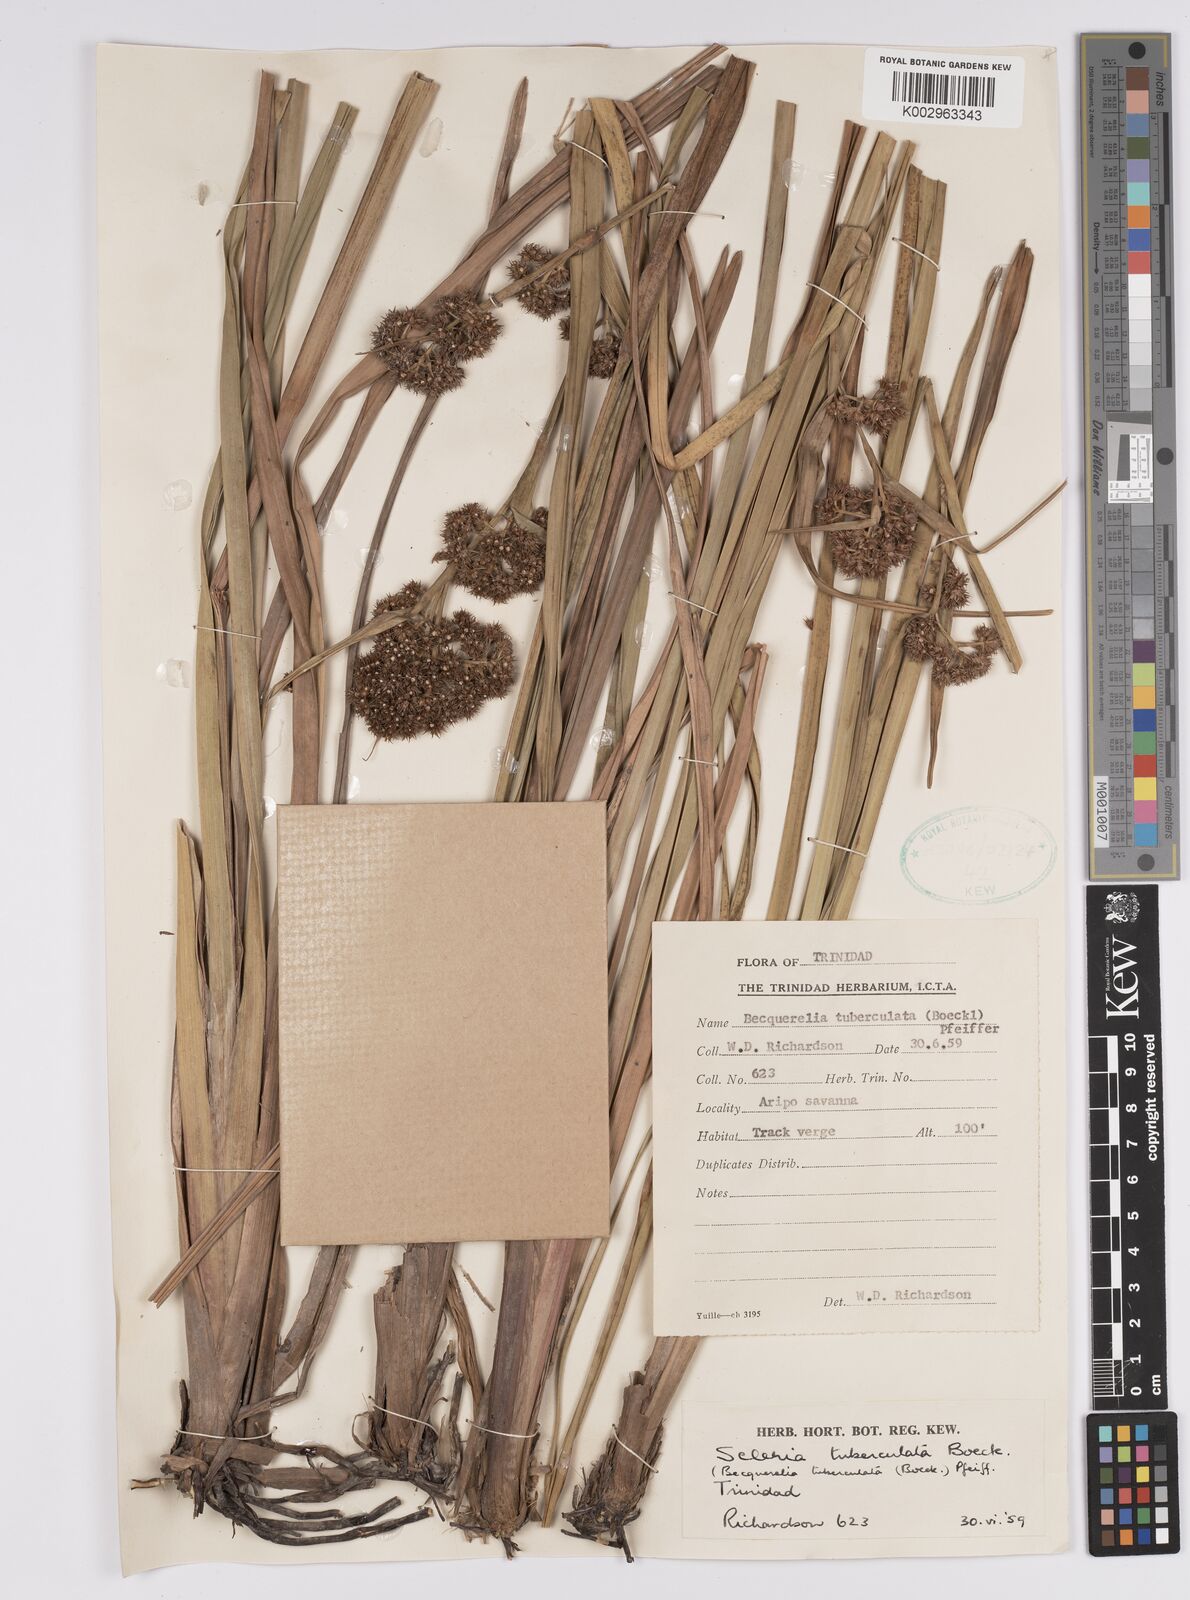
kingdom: Plantae
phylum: Tracheophyta
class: Liliopsida
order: Poales
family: Cyperaceae
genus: Becquerelia
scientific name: Becquerelia tuberculata
